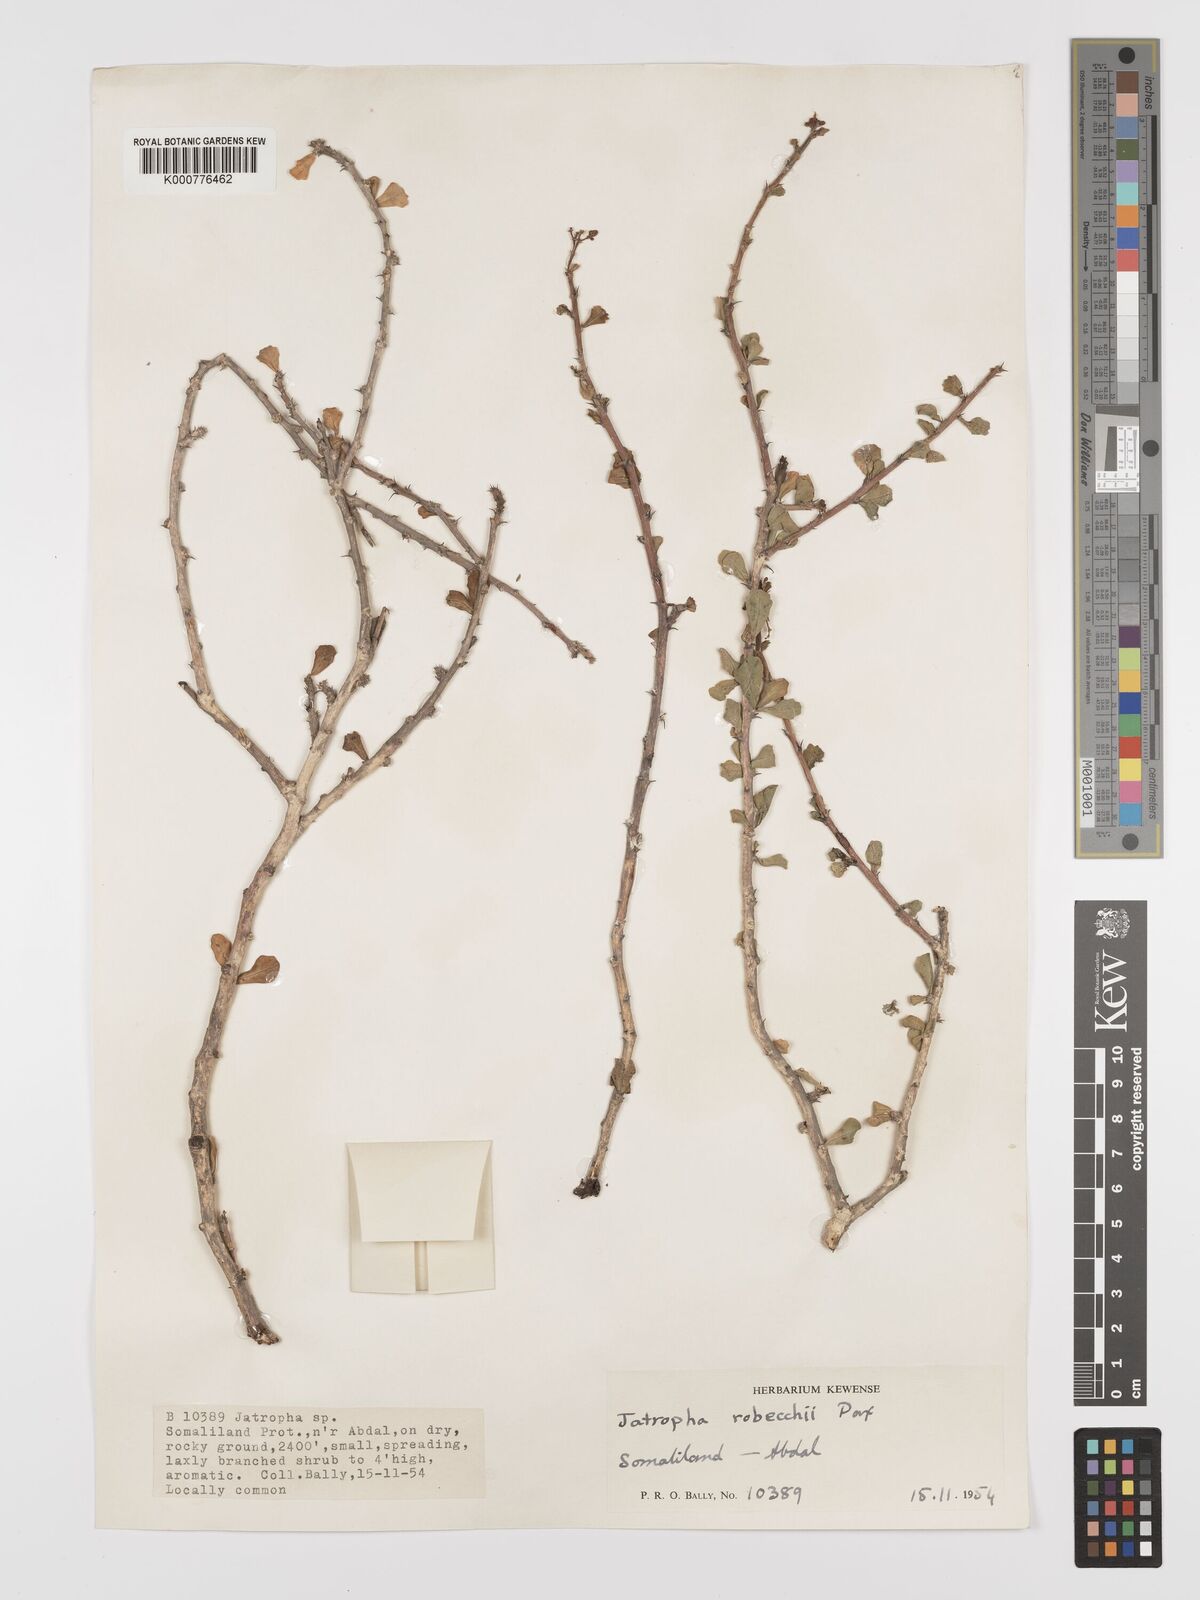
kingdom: Plantae
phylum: Tracheophyta
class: Magnoliopsida
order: Malpighiales
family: Euphorbiaceae
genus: Jatropha
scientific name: Jatropha rivae
